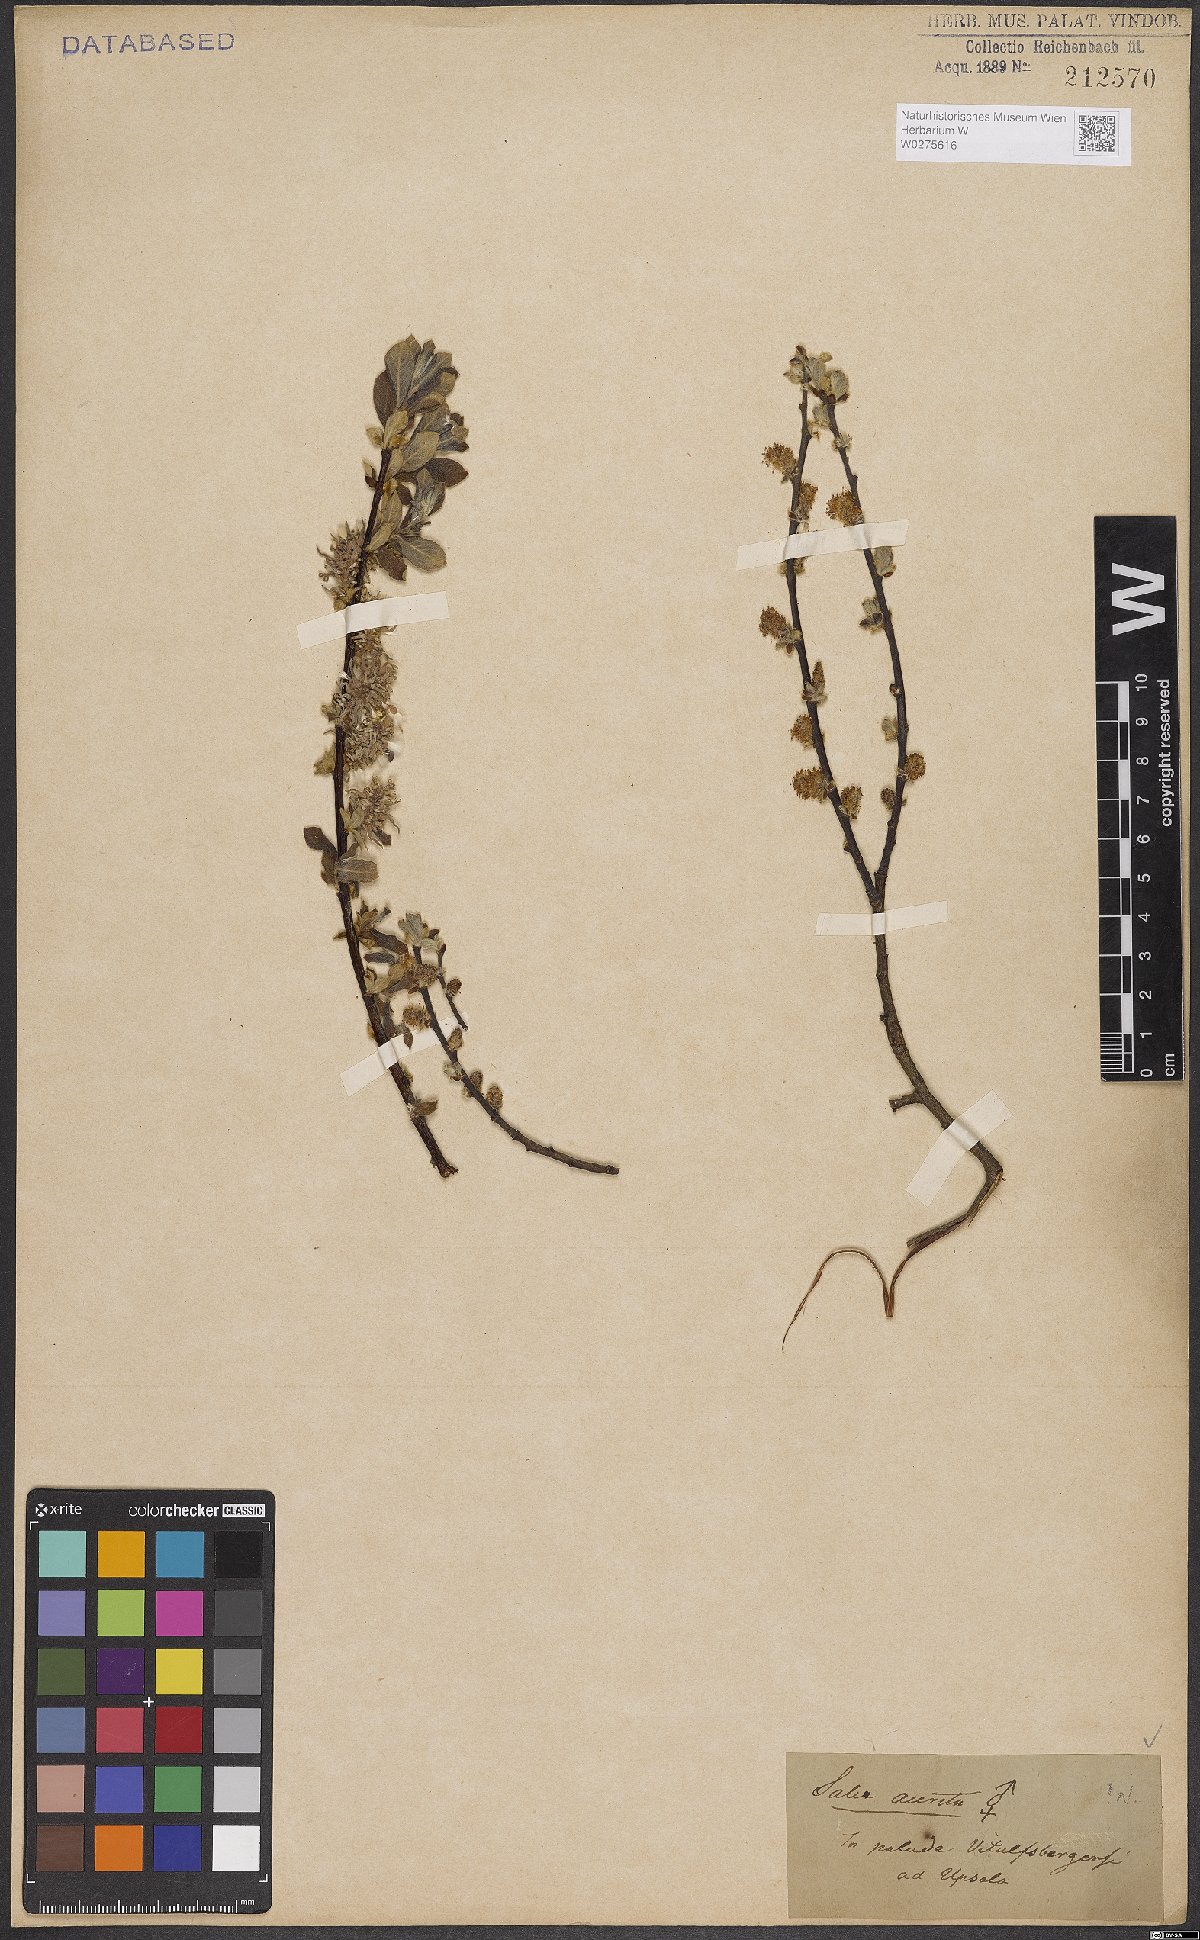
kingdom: Plantae
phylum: Tracheophyta
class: Magnoliopsida
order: Malpighiales
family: Salicaceae
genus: Salix
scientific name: Salix aurita
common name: Eared willow
